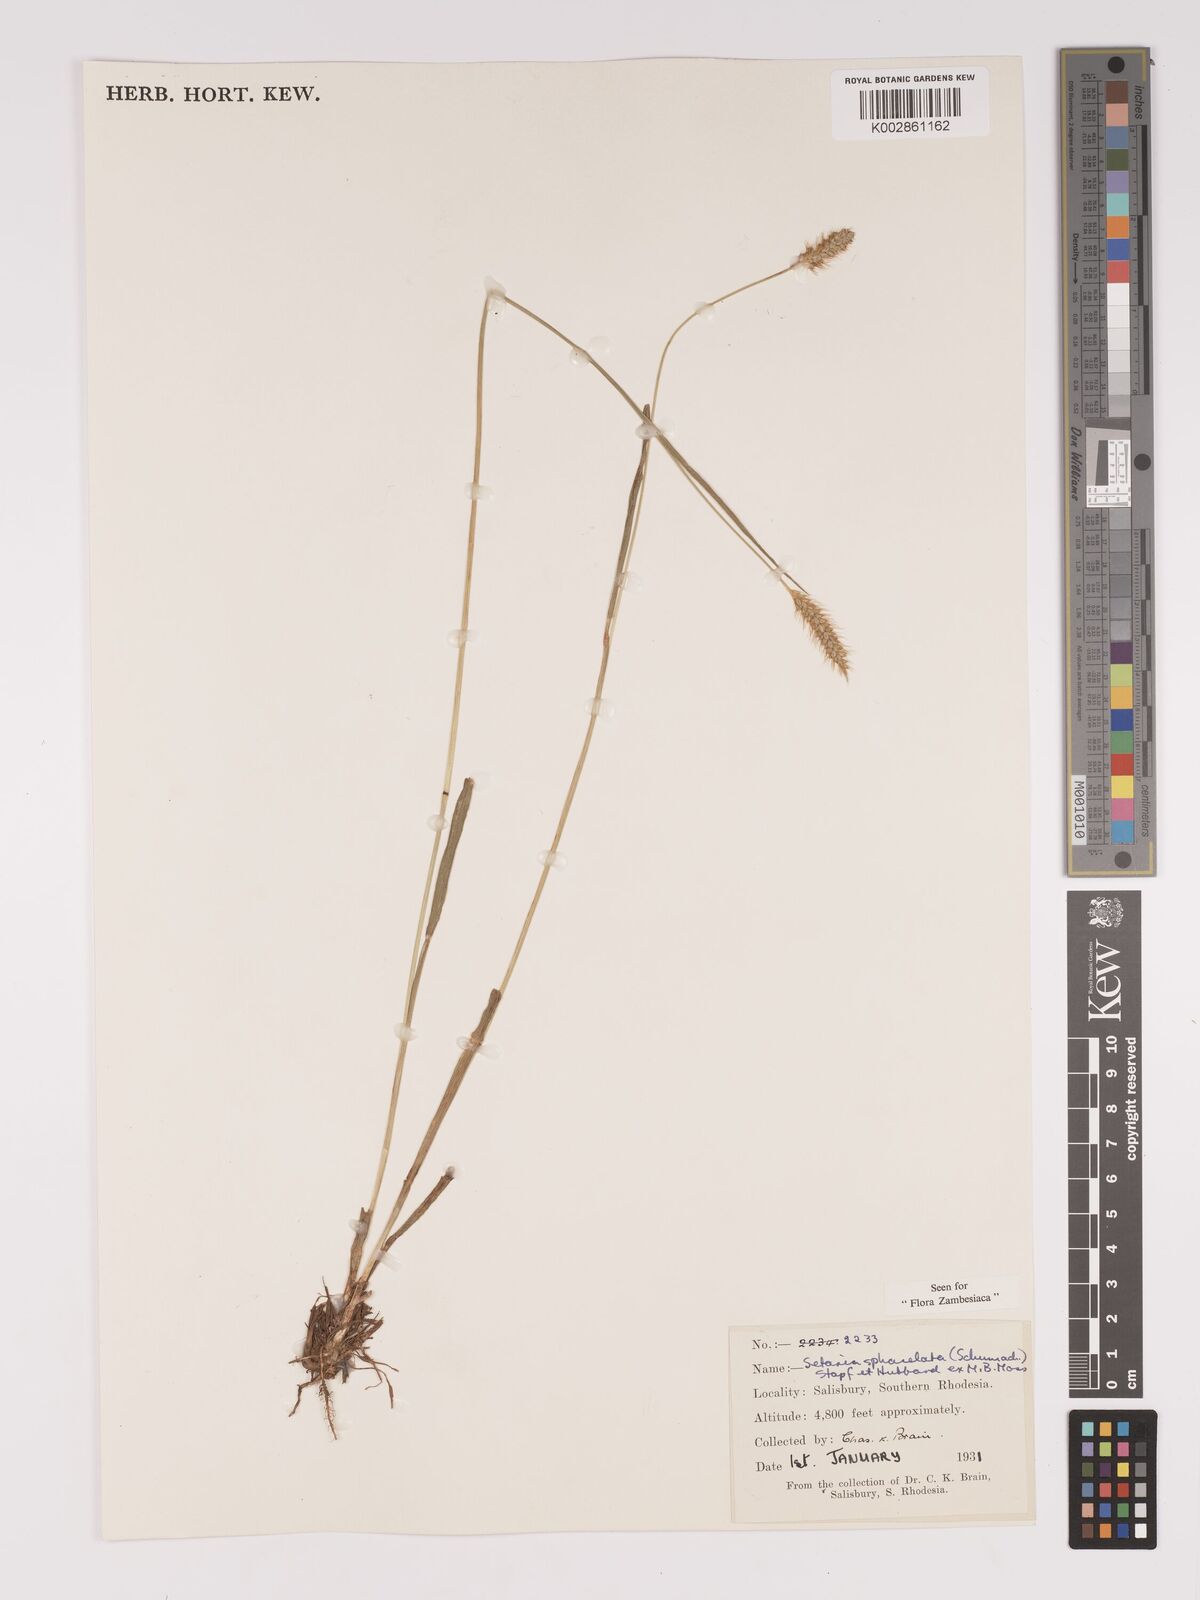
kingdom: Plantae
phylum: Tracheophyta
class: Liliopsida
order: Poales
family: Poaceae
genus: Setaria
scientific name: Setaria sphacelata
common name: African bristlegrass
